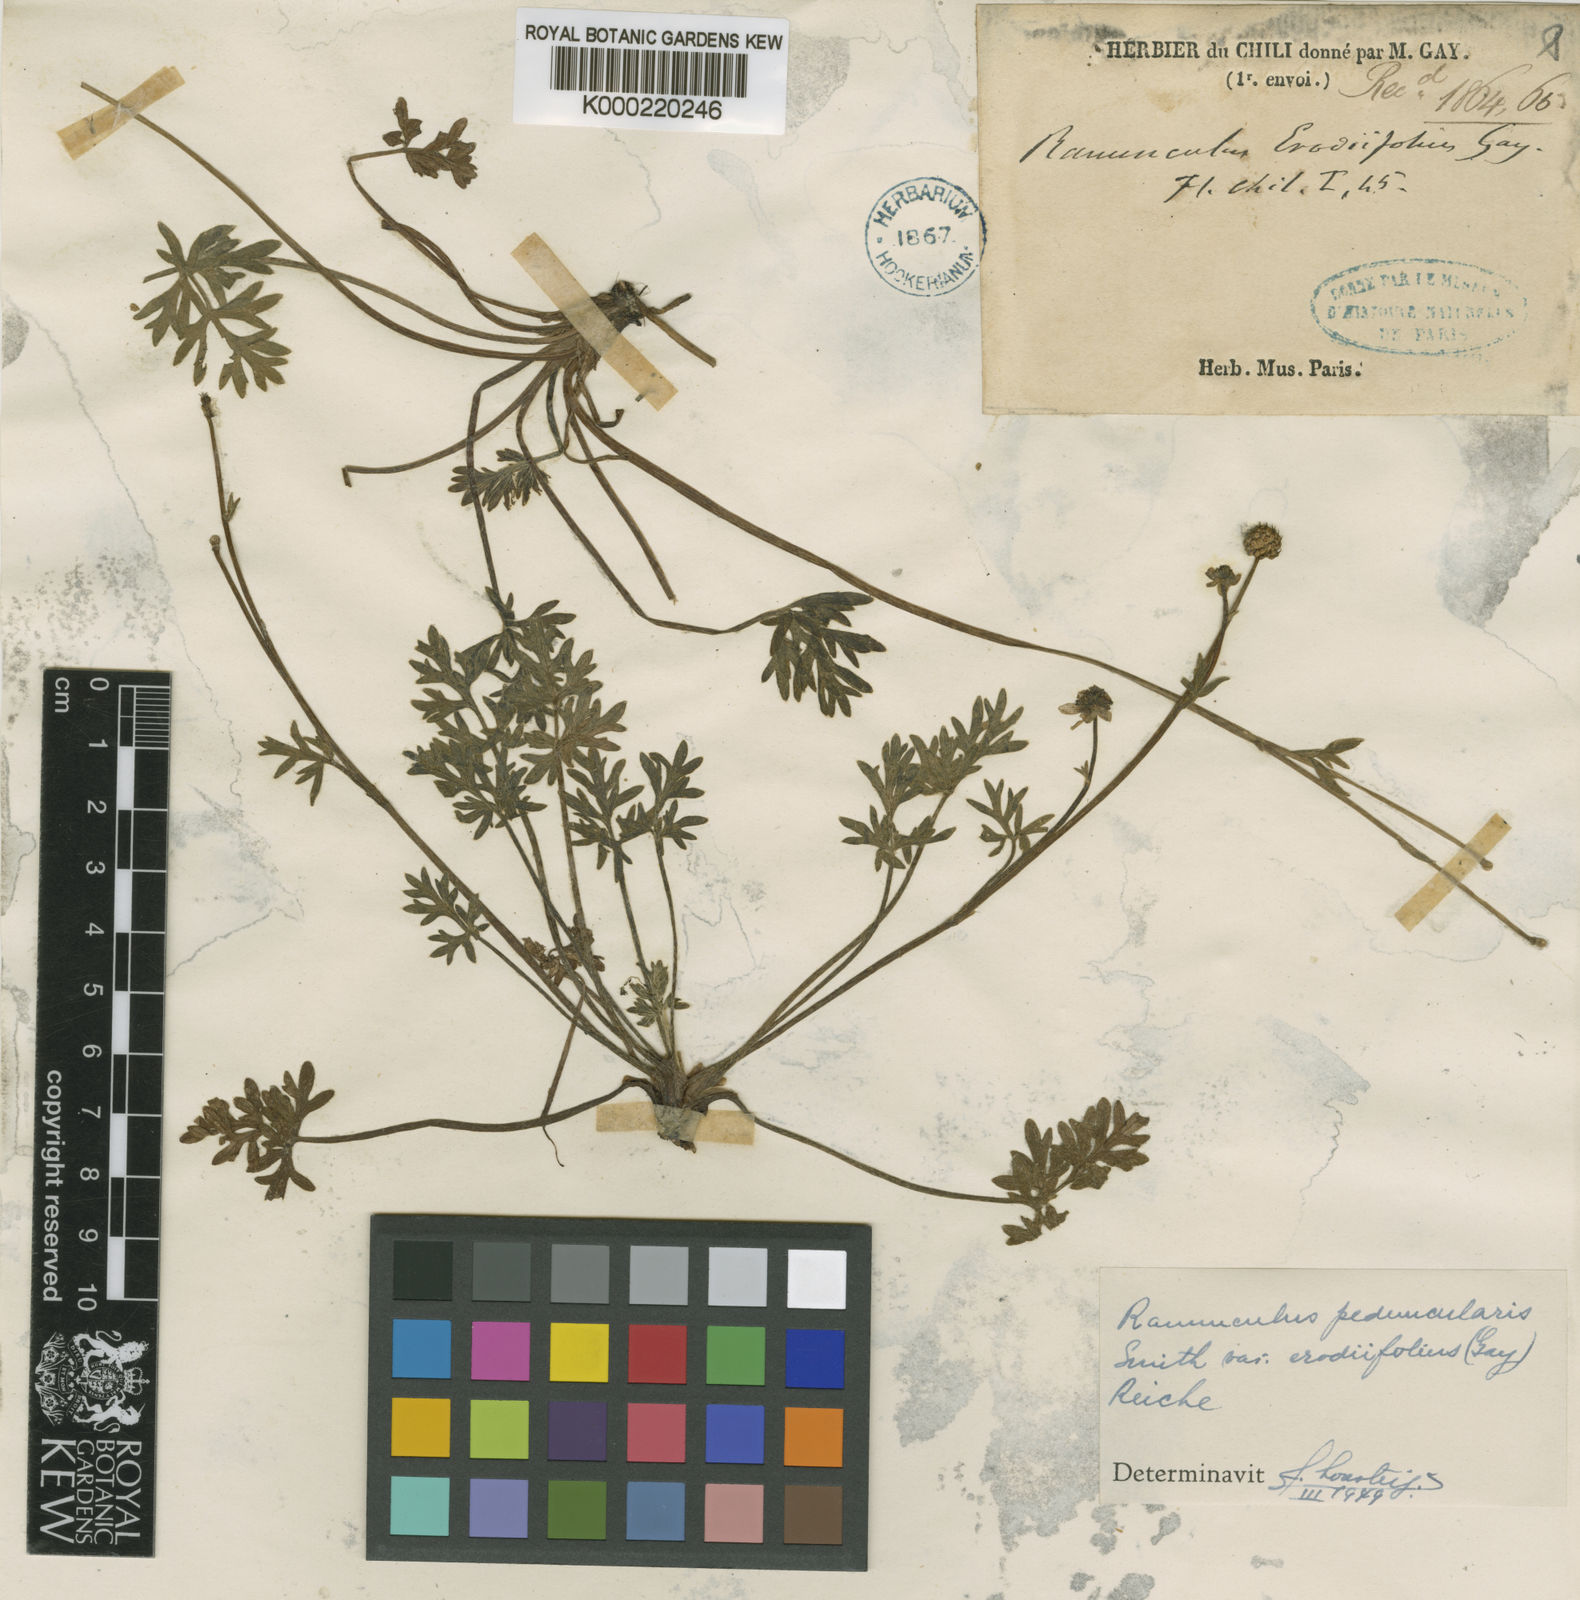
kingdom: Plantae
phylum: Tracheophyta
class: Magnoliopsida
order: Ranunculales
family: Ranunculaceae
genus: Ranunculus
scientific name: Ranunculus peduncularis
